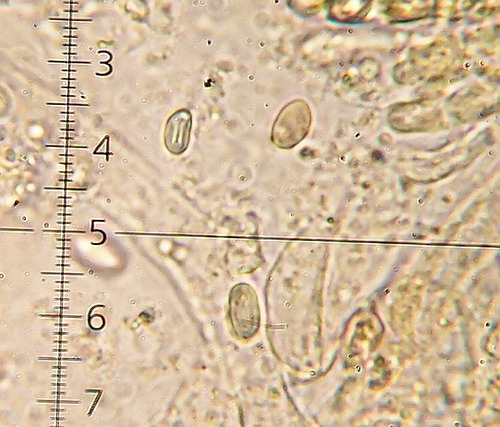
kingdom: Fungi
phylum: Basidiomycota
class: Agaricomycetes
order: Boletales
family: Hygrophoropsidaceae
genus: Hygrophoropsis
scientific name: Hygrophoropsis pallida
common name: bleg orangekantarel
